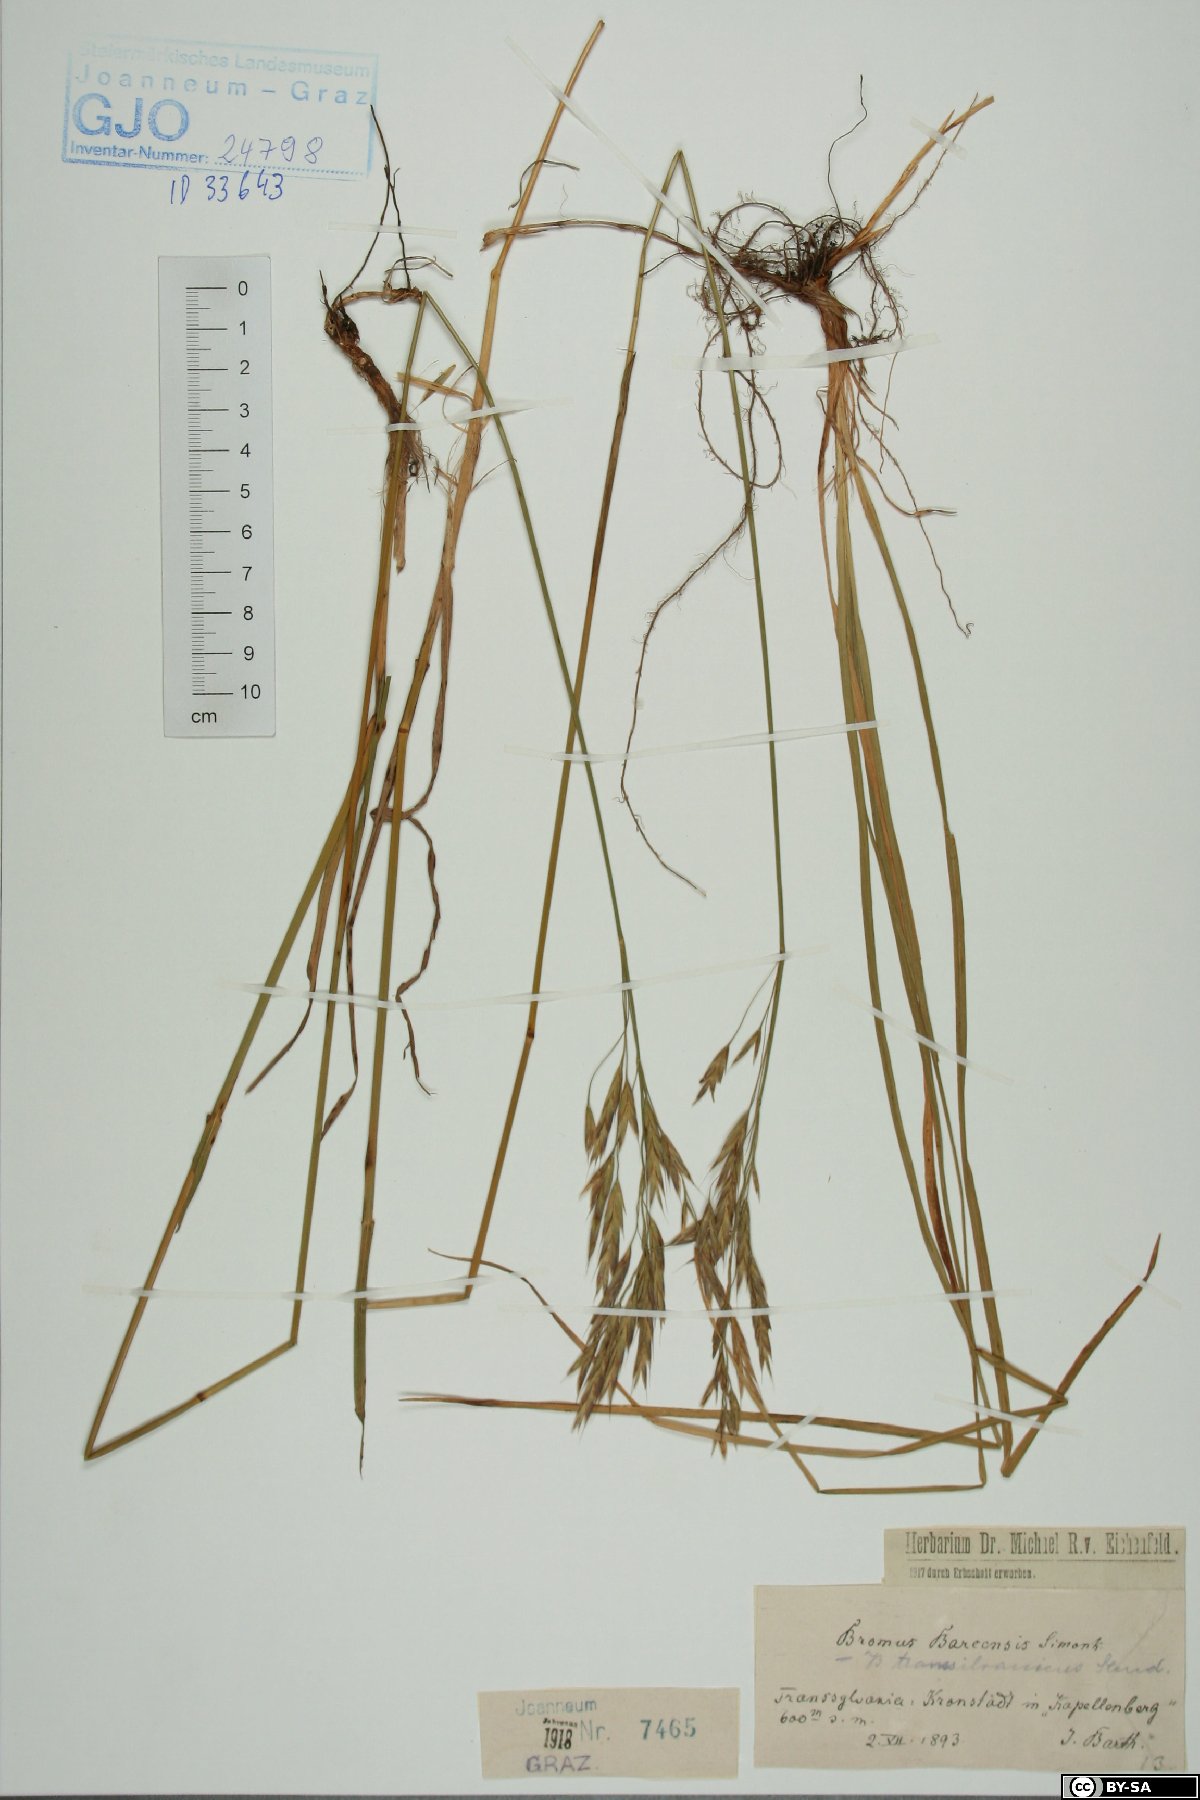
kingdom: Plantae
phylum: Tracheophyta
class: Liliopsida
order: Poales
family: Poaceae
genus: Bromus
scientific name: Bromus riparius
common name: Meadow brome
